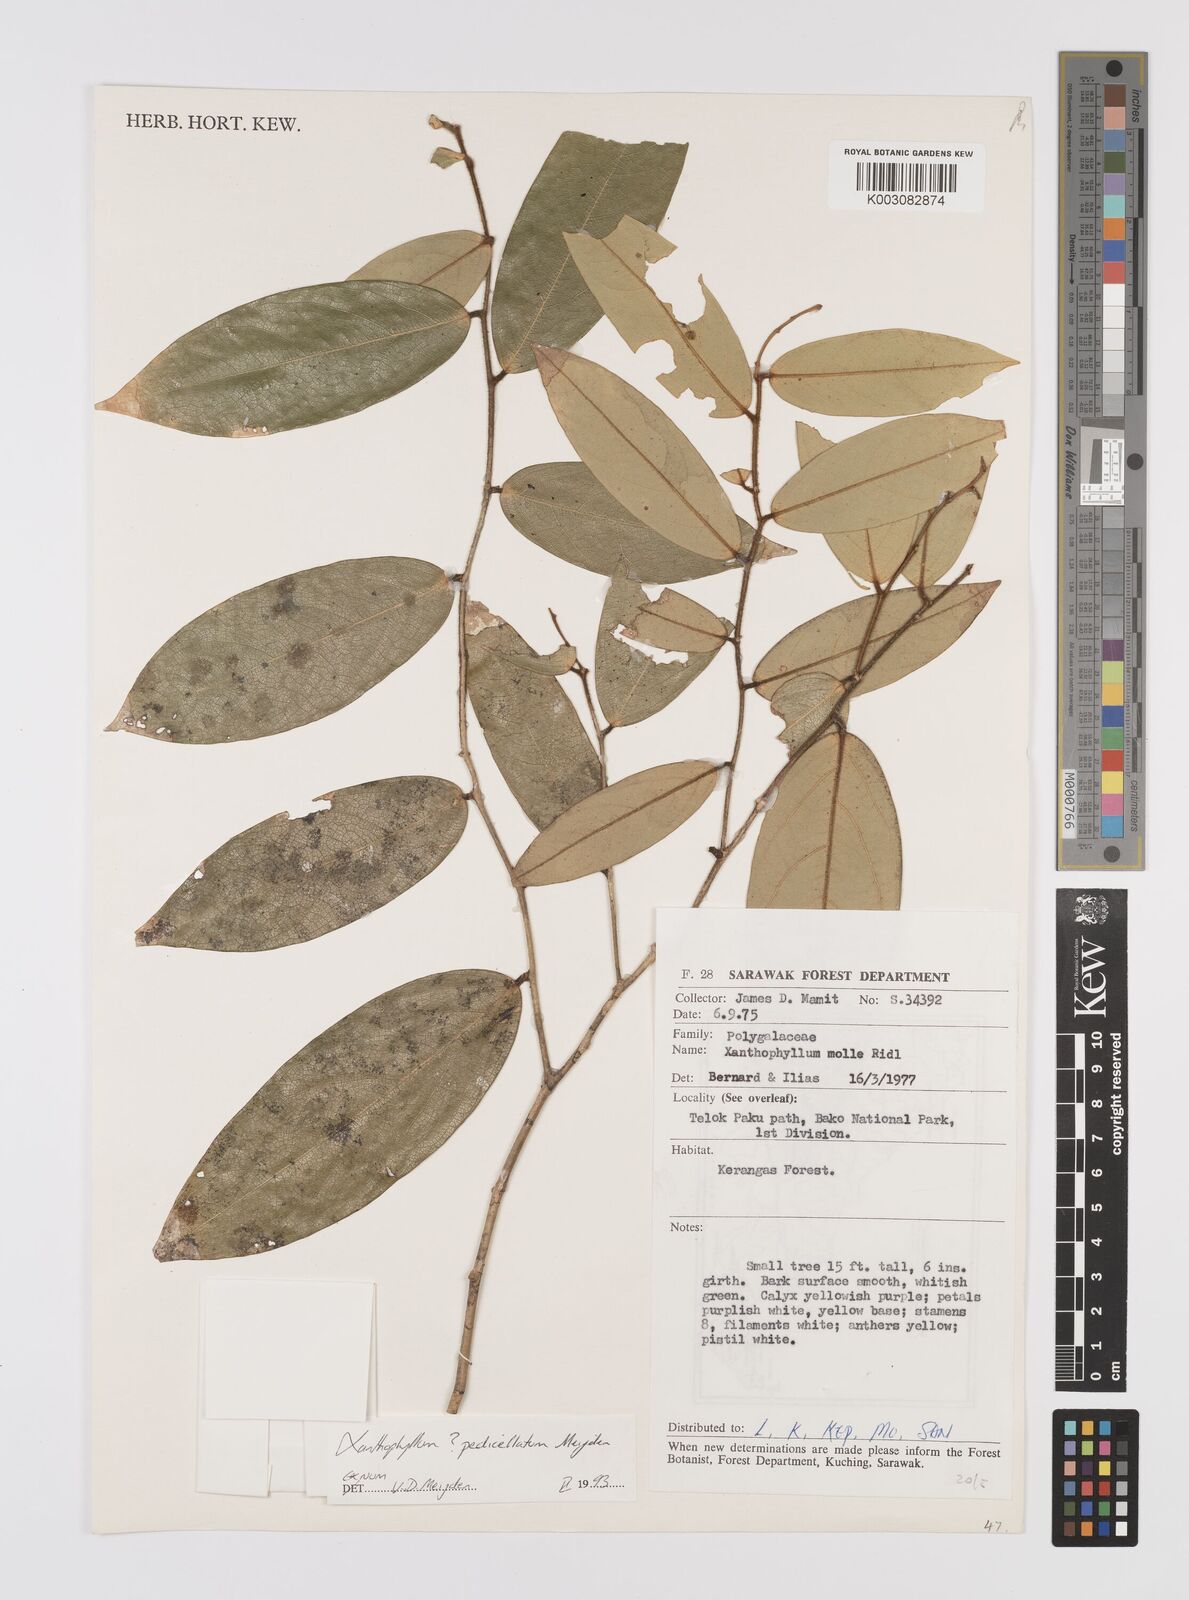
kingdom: Plantae
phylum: Tracheophyta
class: Magnoliopsida
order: Fabales
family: Polygalaceae
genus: Xanthophyllum
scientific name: Xanthophyllum pedicellatum
